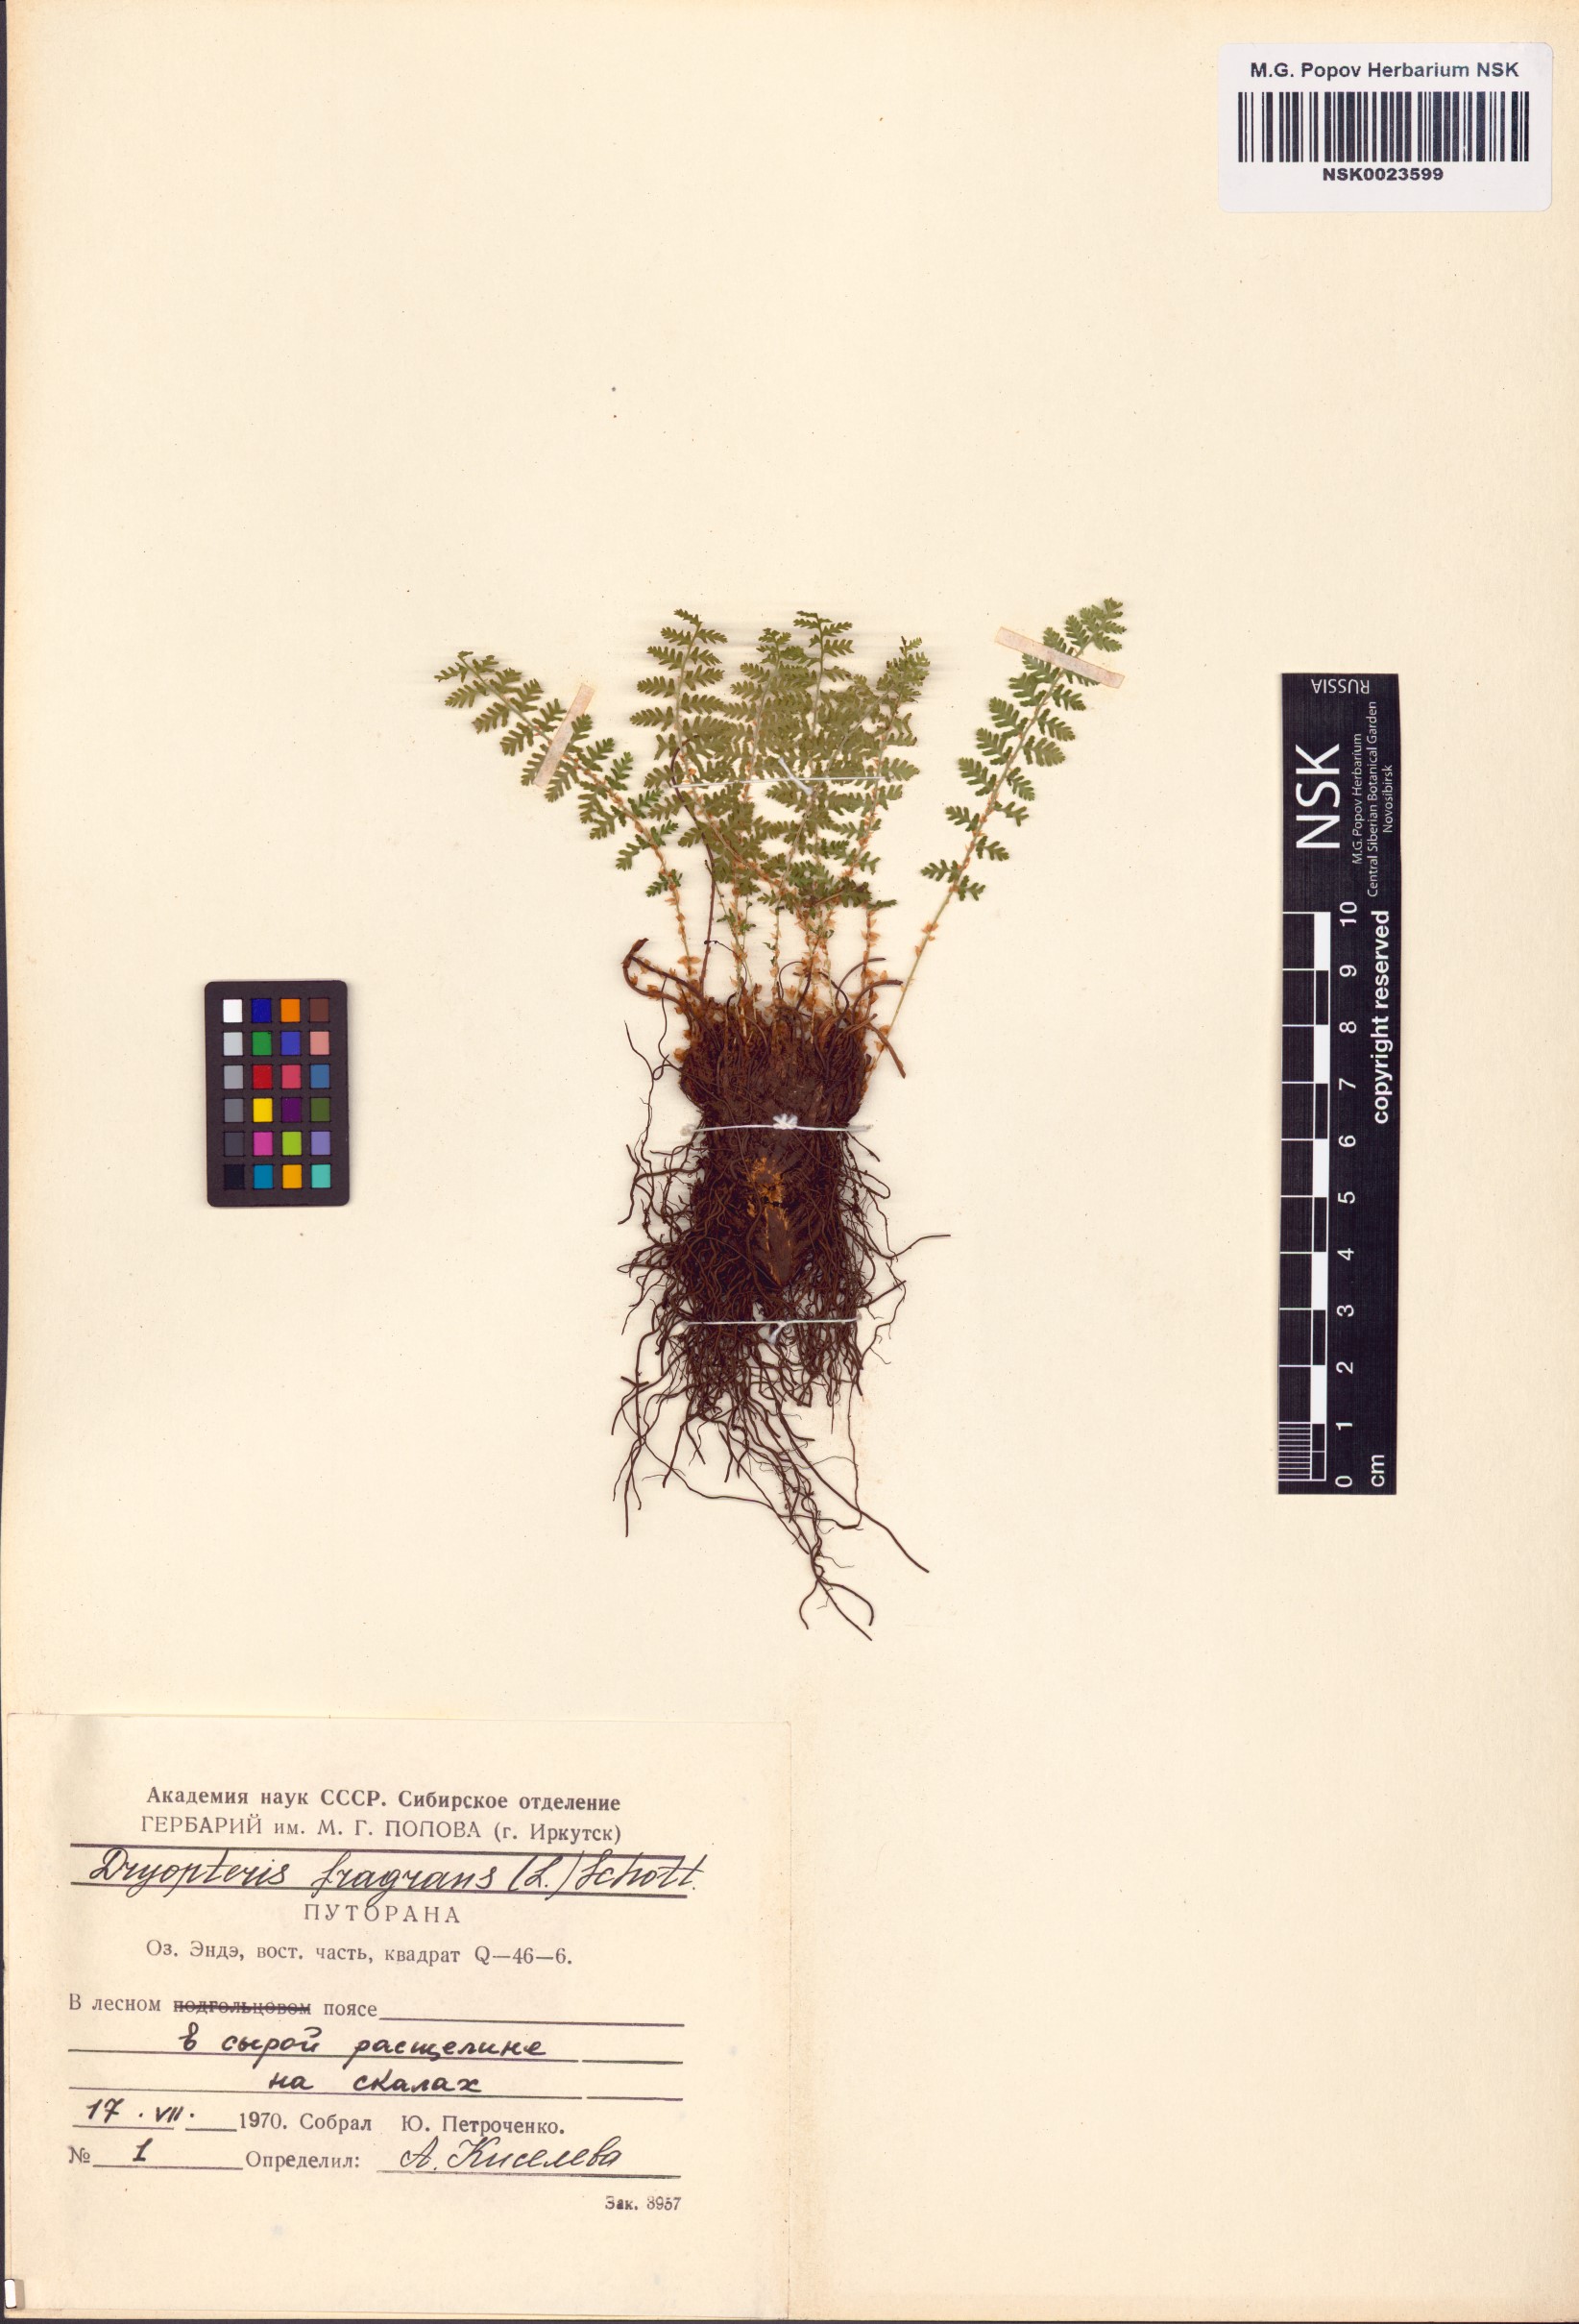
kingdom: Plantae
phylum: Tracheophyta
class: Polypodiopsida
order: Polypodiales
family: Dryopteridaceae
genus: Dryopteris
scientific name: Dryopteris fragrans
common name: Fragrant wood fern
